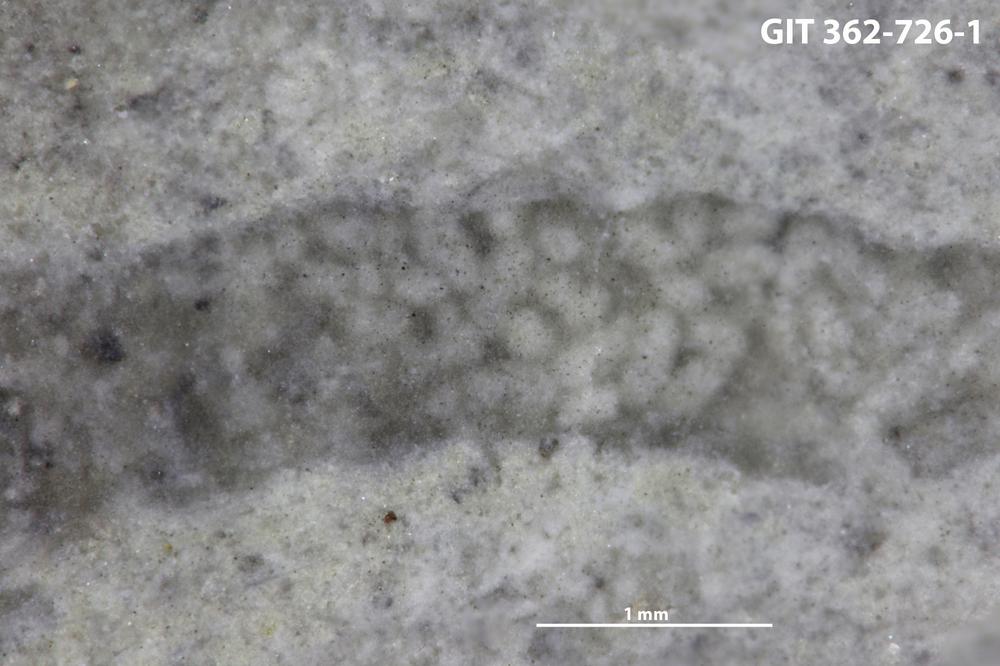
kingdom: Plantae
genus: Alcyonidiopsis
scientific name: Alcyonidiopsis longobardiae
